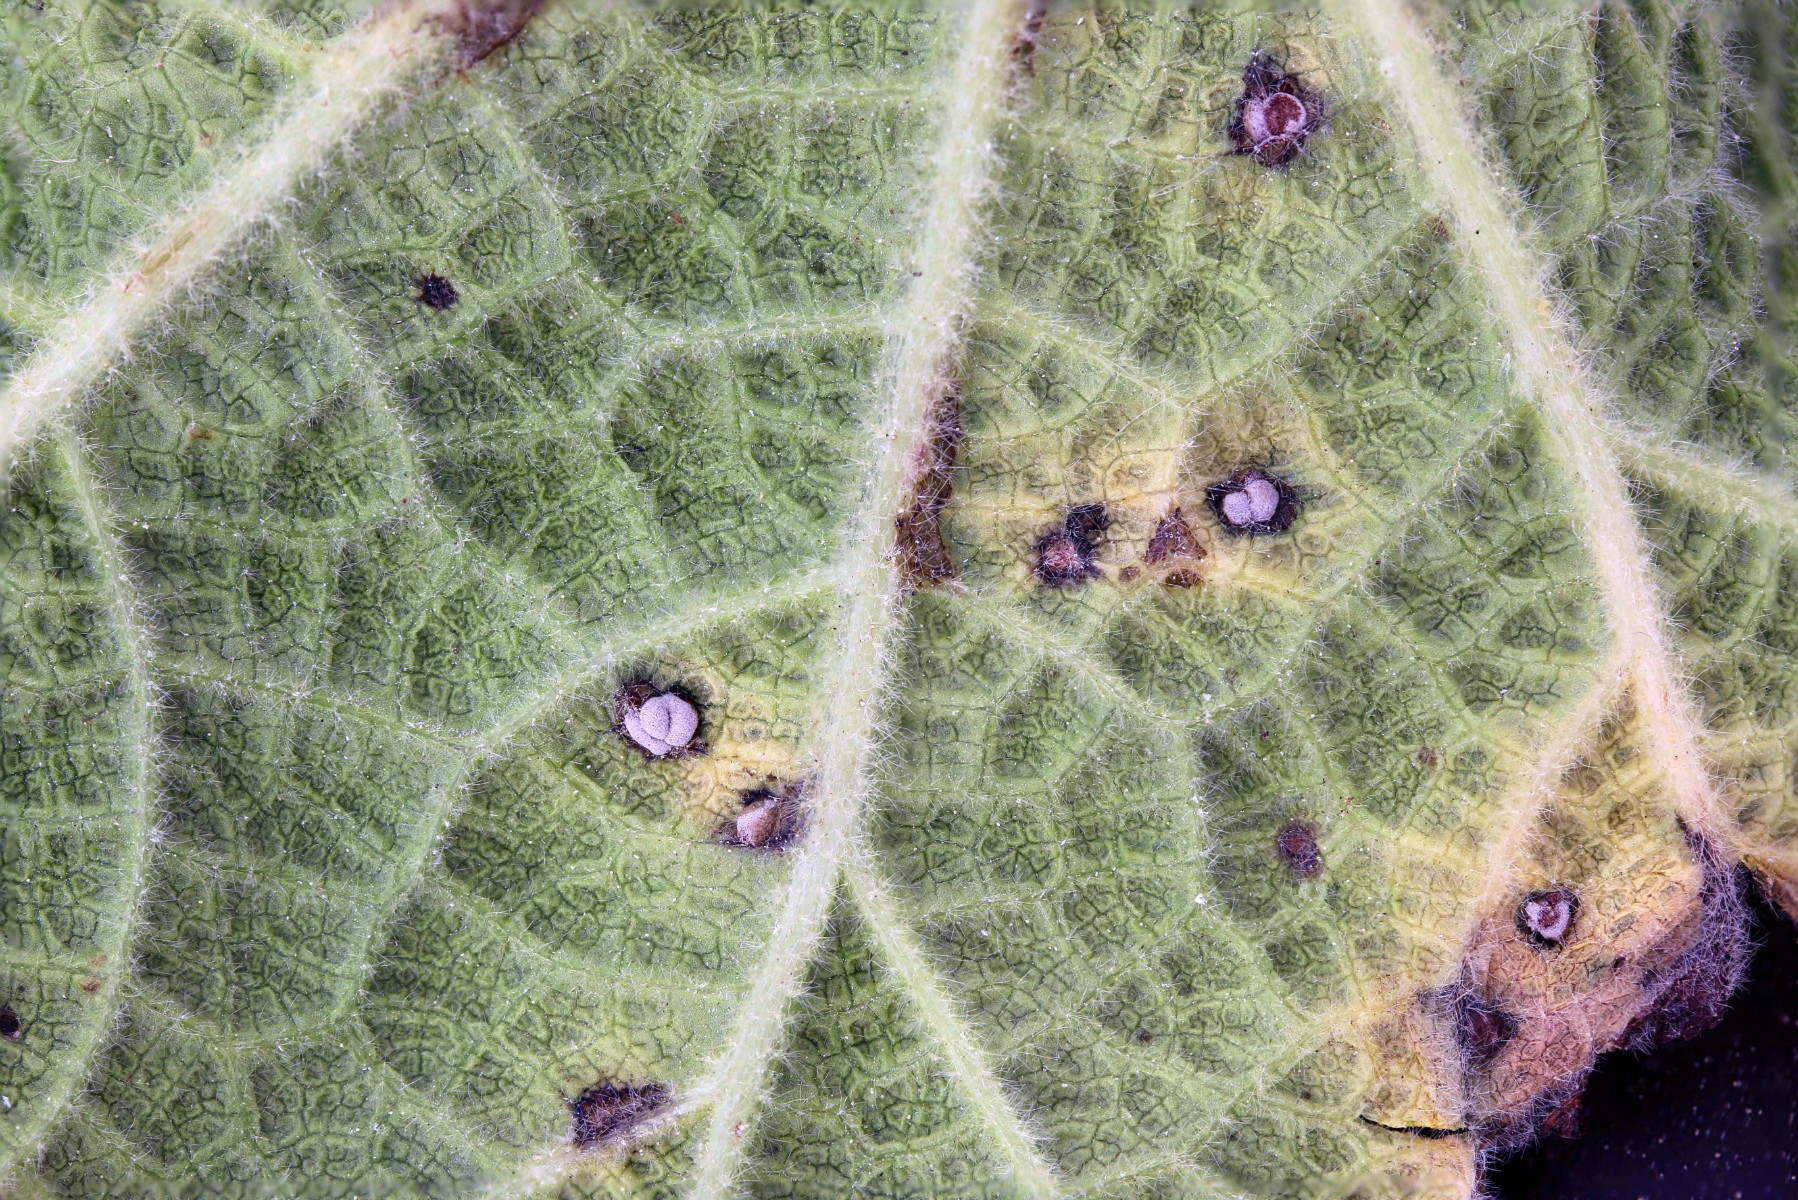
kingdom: Fungi
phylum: Basidiomycota
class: Pucciniomycetes
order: Pucciniales
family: Pucciniaceae
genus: Puccinia
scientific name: Puccinia malvacearum
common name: stokrose-tvecellerust
